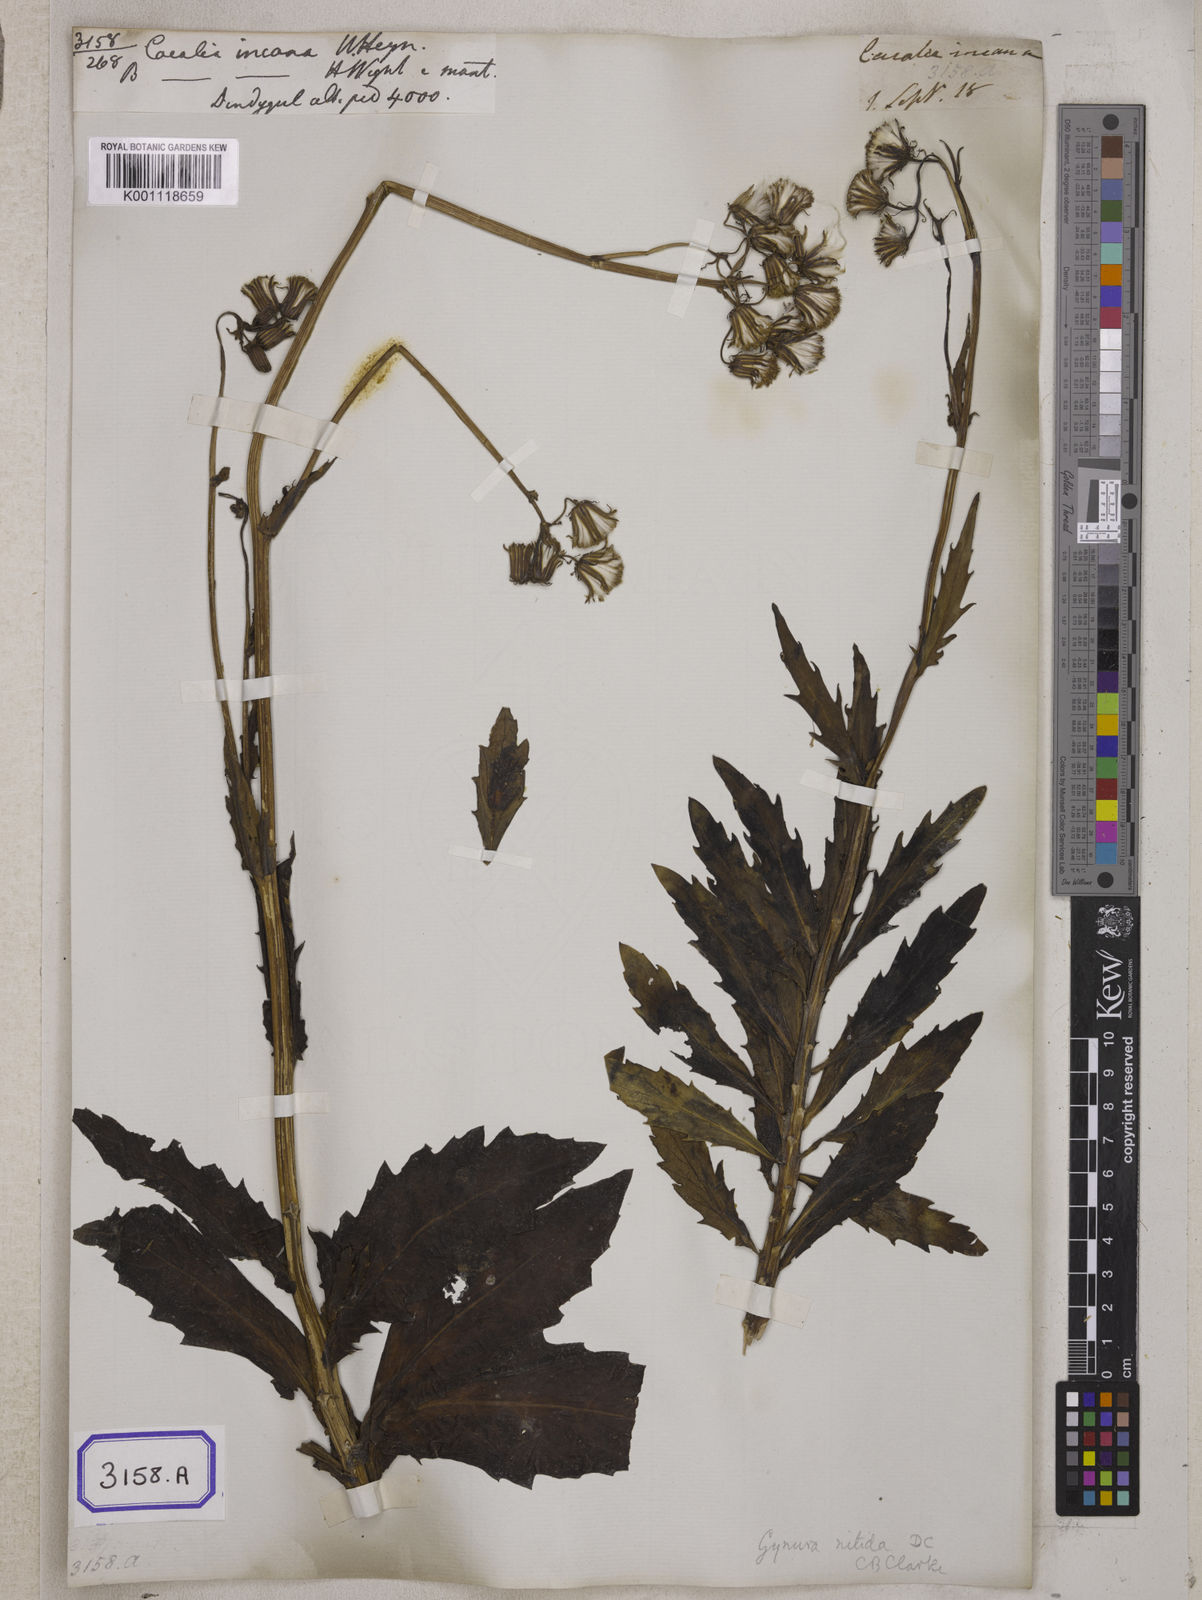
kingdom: Plantae
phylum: Tracheophyta
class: Magnoliopsida
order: Asterales
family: Asteraceae
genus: Gynura
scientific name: Gynura divaricata
